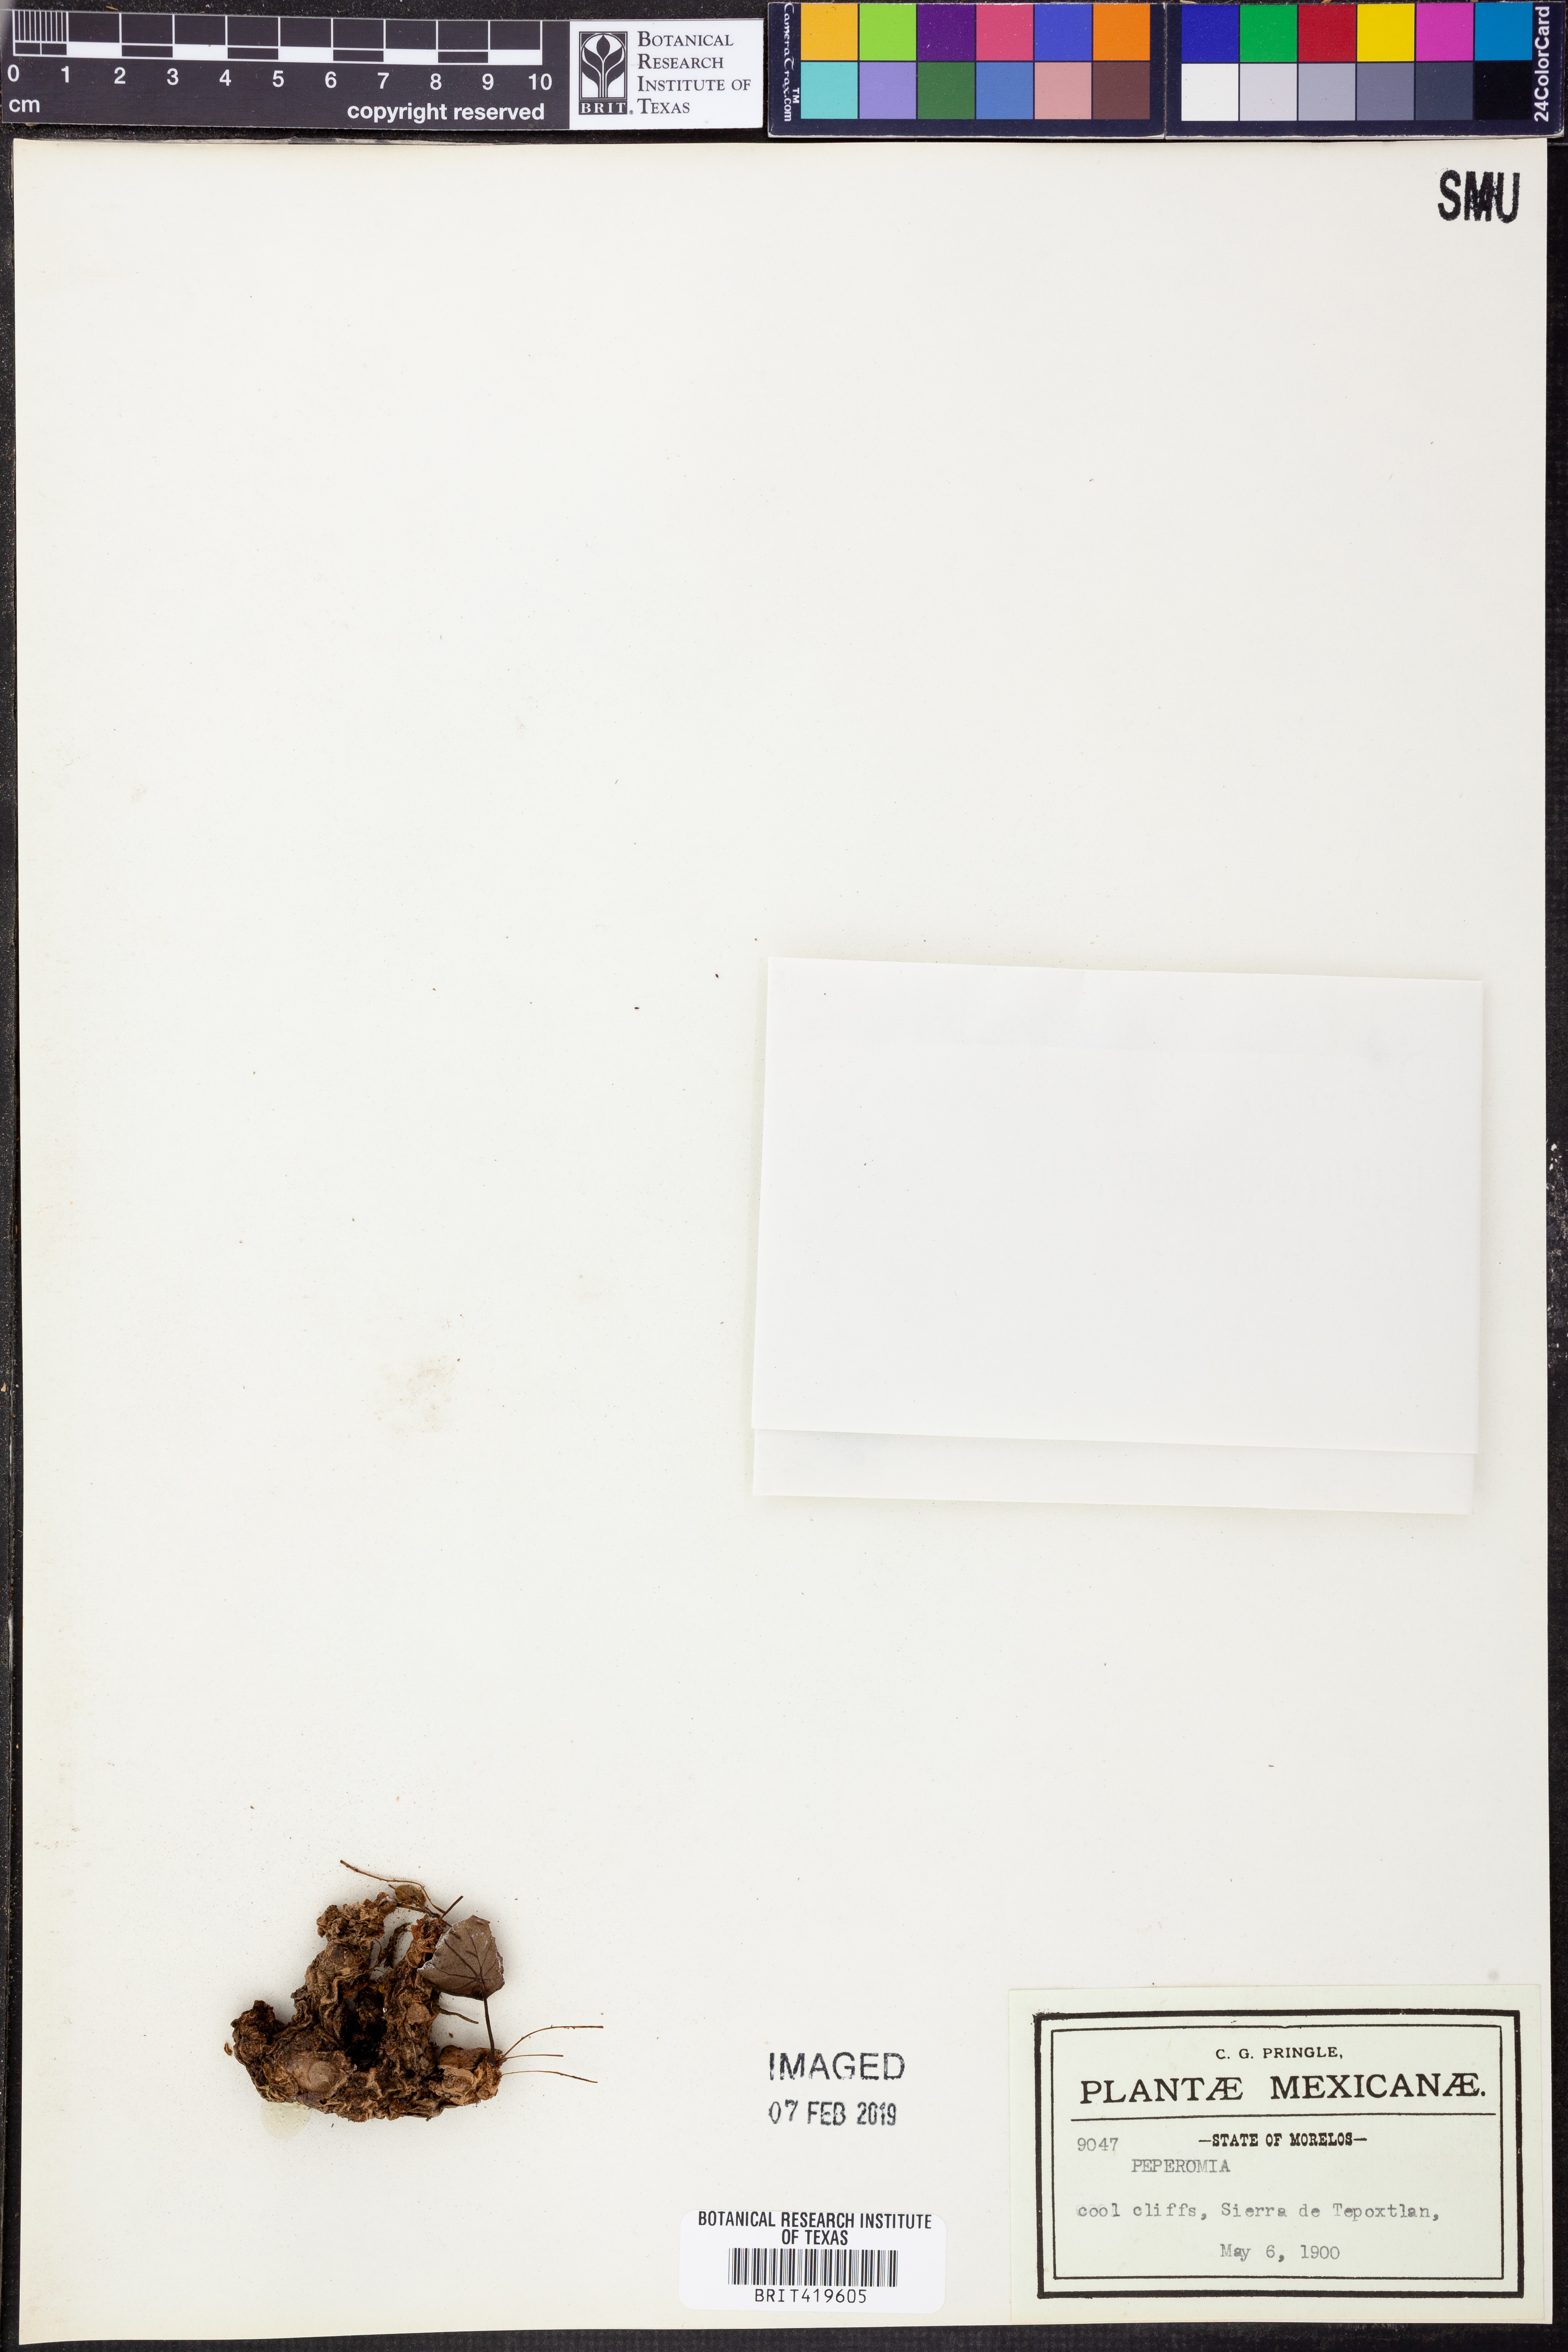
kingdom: Plantae
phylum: Tracheophyta
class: Magnoliopsida
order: Piperales
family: Piperaceae
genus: Peperomia
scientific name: Peperomia
